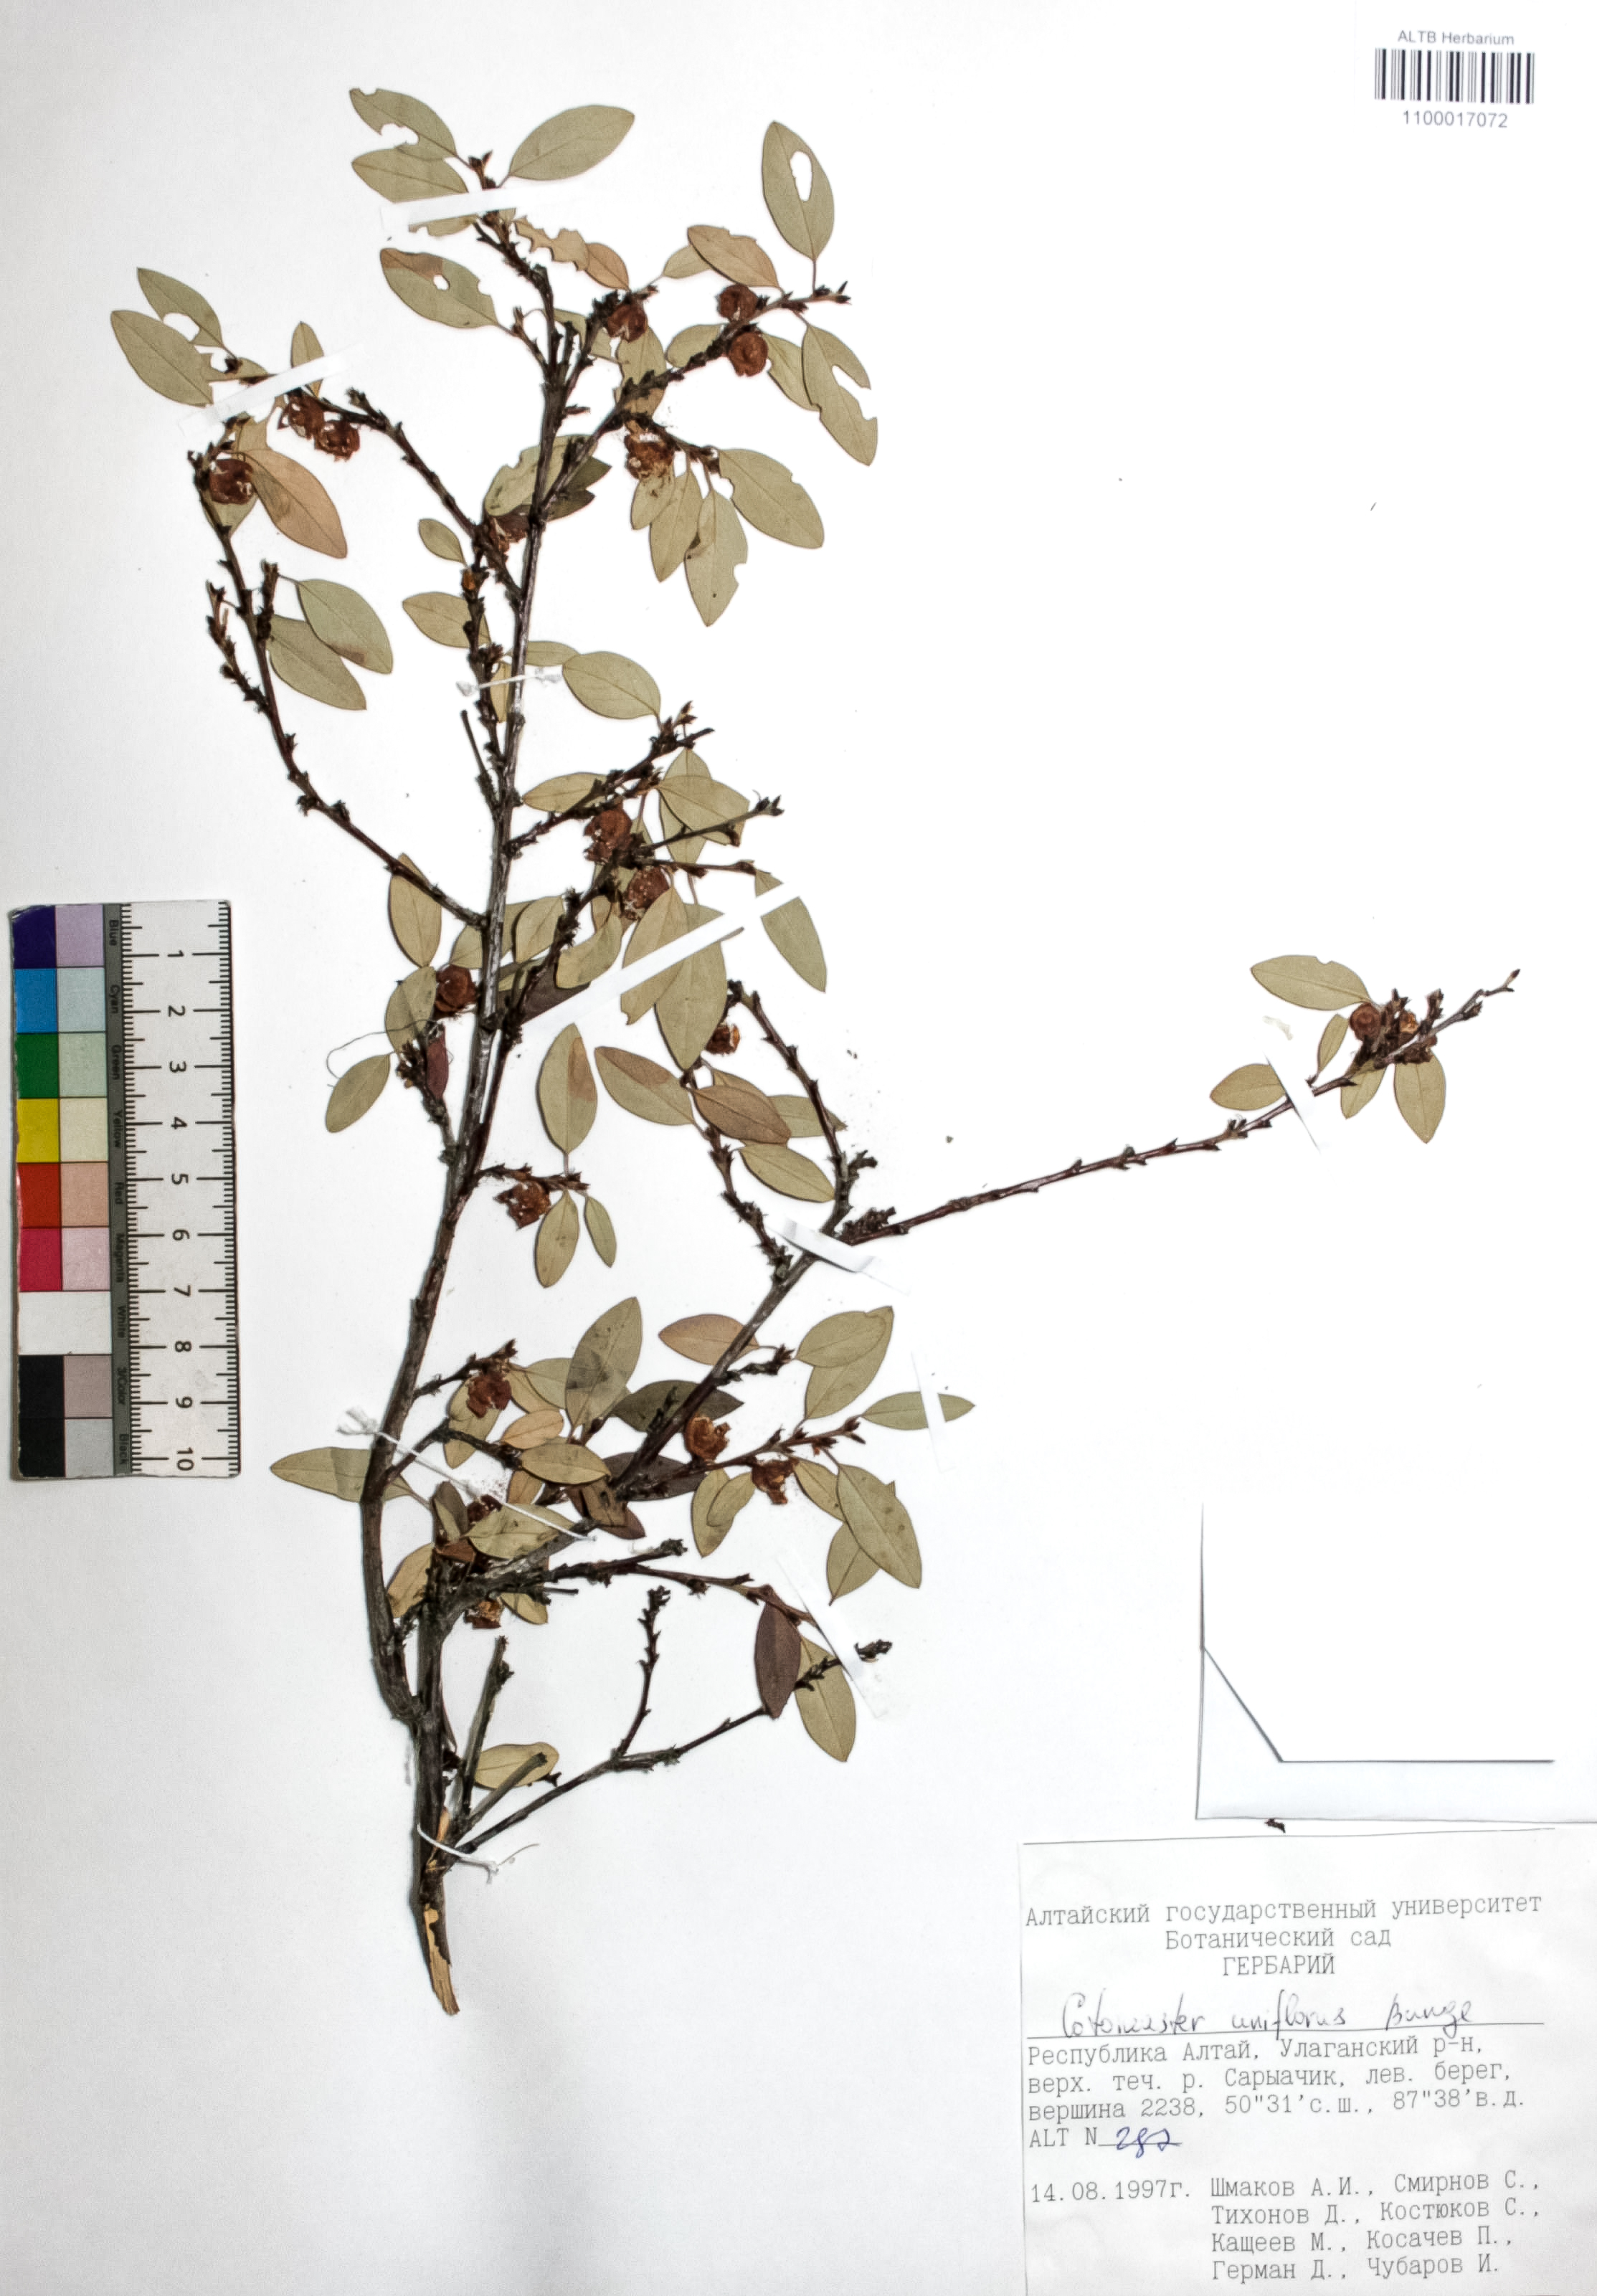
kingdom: Plantae
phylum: Tracheophyta
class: Magnoliopsida
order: Rosales
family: Rosaceae
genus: Cotoneaster
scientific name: Cotoneaster uniflorus
